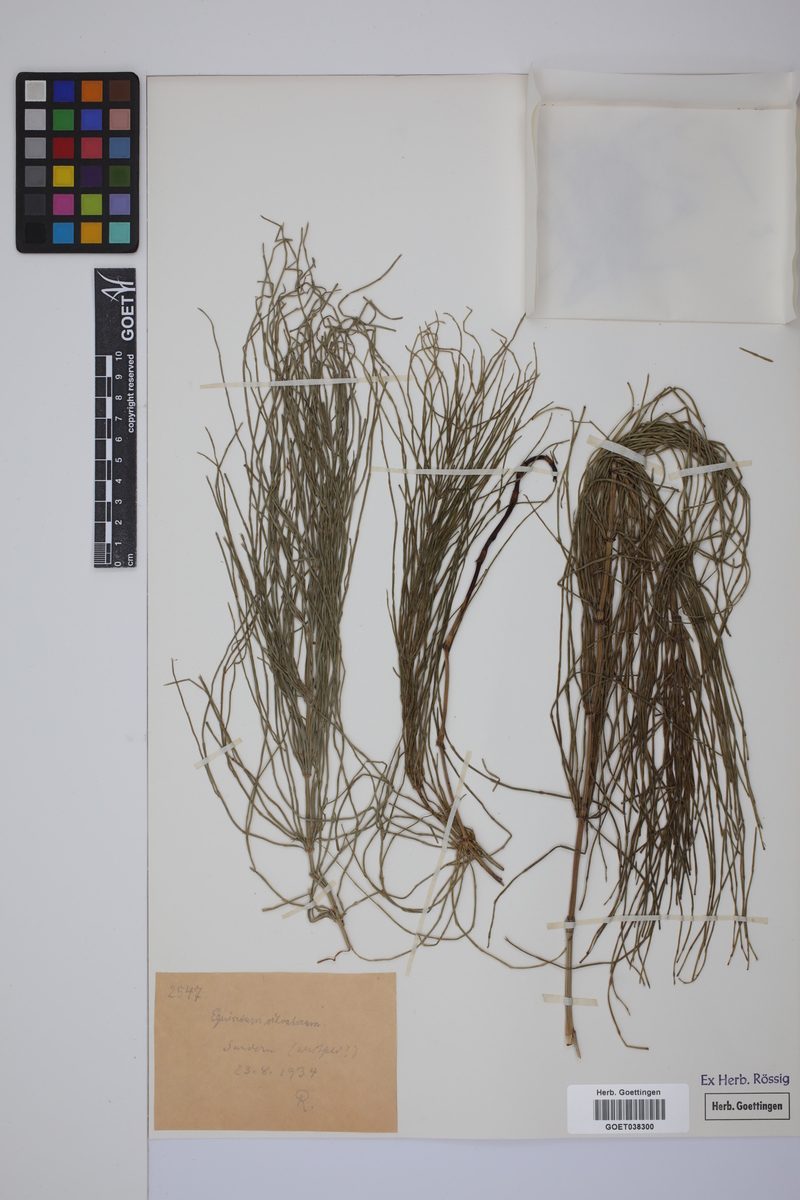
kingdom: Plantae
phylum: Tracheophyta
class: Polypodiopsida
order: Equisetales
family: Equisetaceae
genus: Equisetum
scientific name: Equisetum arvense
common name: Field horsetail
